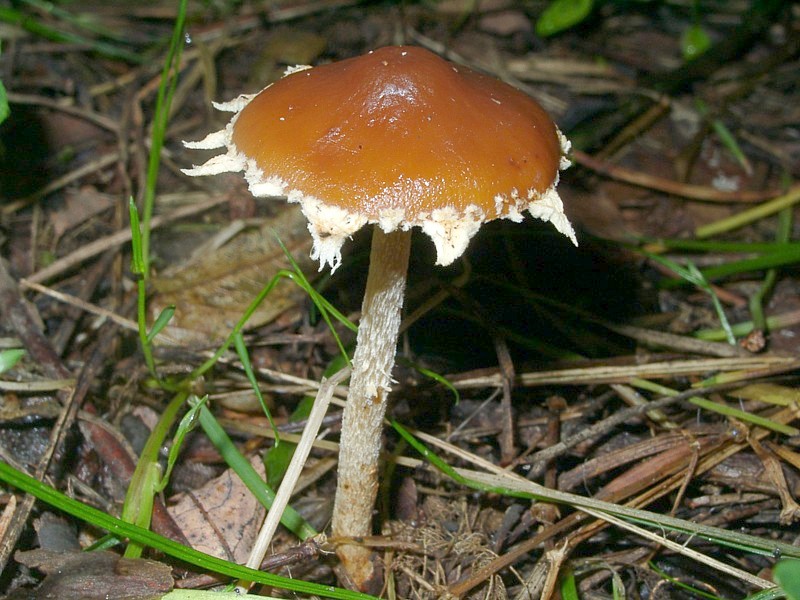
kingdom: Fungi
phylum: Basidiomycota
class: Agaricomycetes
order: Agaricales
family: Bolbitiaceae
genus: Conocybe
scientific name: Conocybe vestita
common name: Caped conecap
